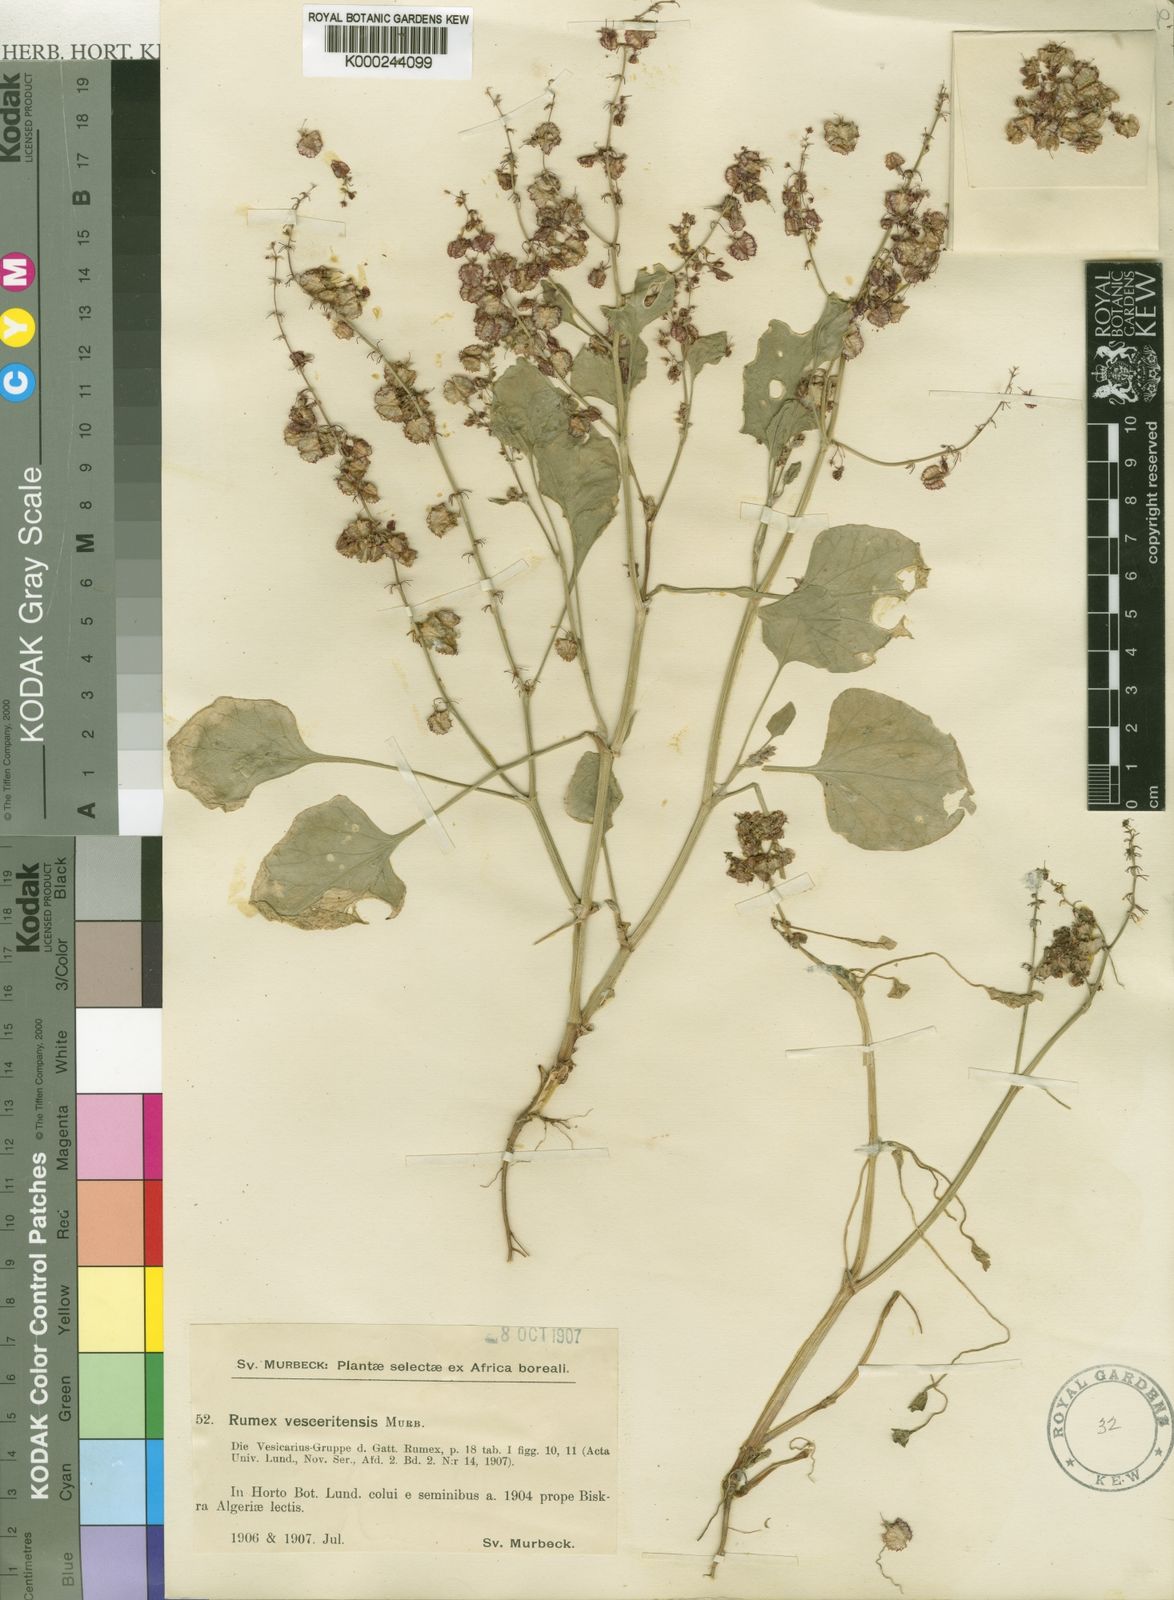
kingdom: Plantae
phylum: Tracheophyta
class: Magnoliopsida
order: Caryophyllales
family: Polygonaceae
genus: Rumex
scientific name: Rumex cyprius
